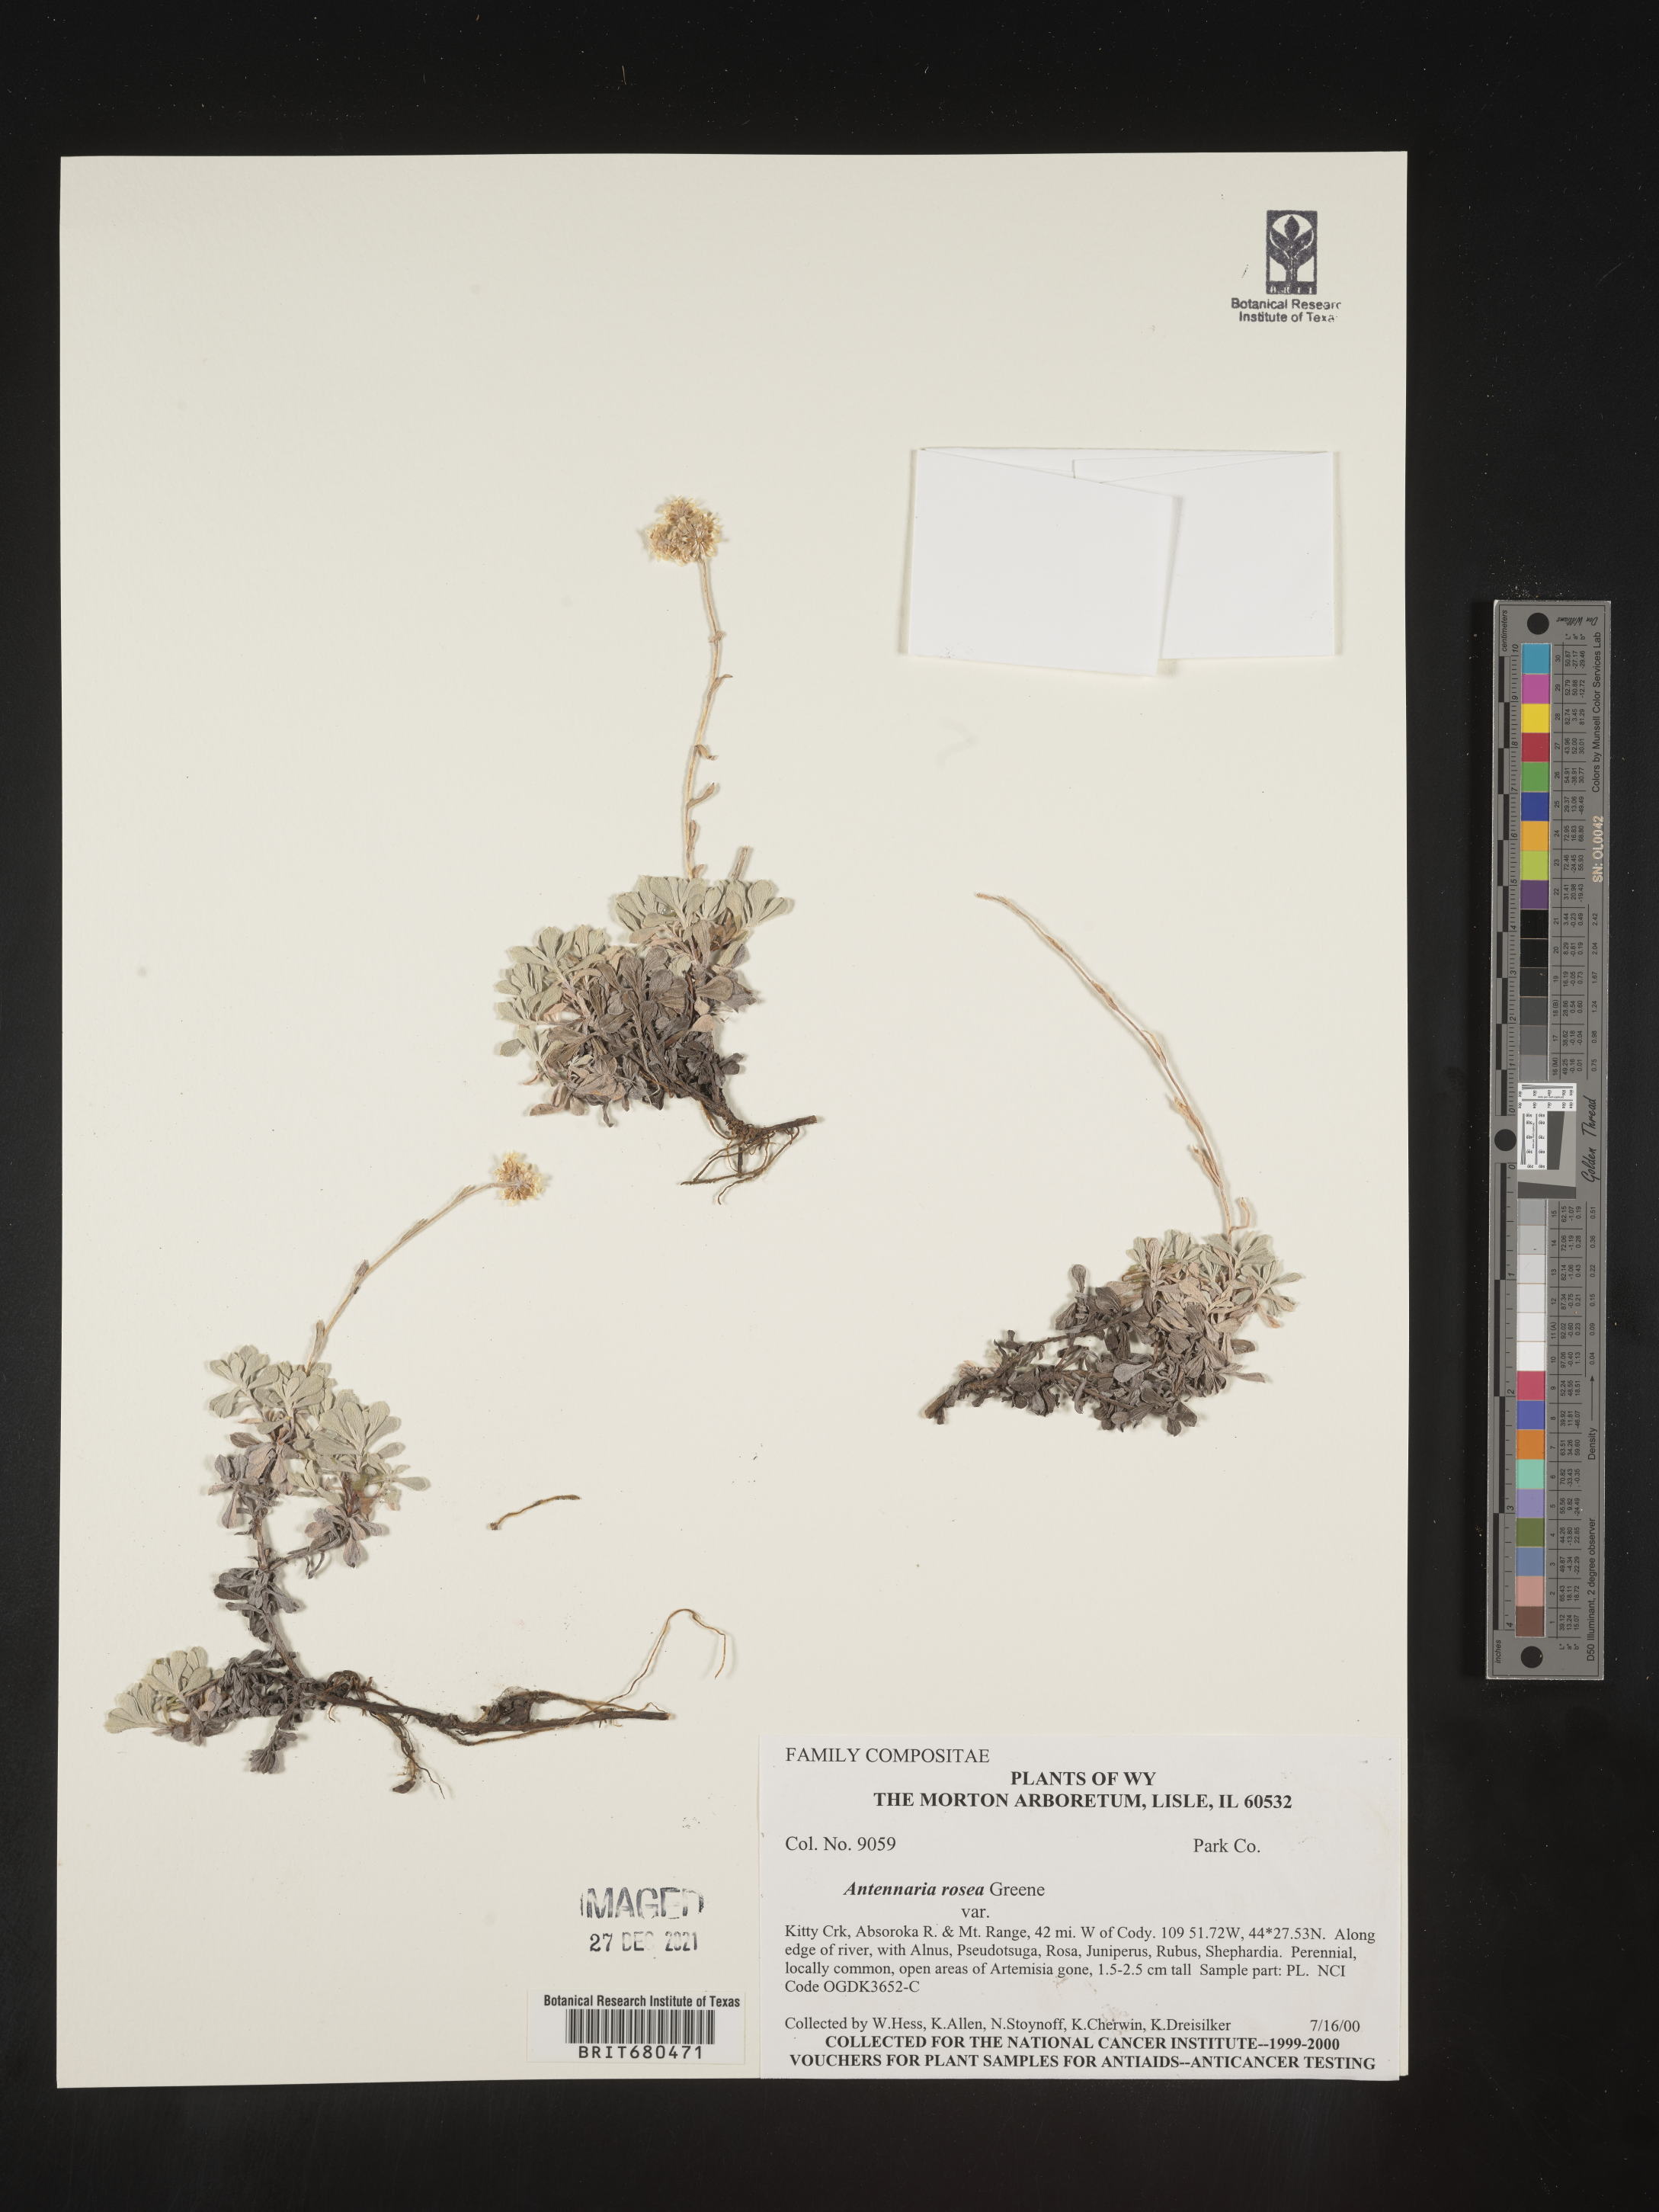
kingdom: Plantae
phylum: Tracheophyta
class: Magnoliopsida
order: Asterales
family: Asteraceae
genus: Antennaria
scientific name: Antennaria rosea
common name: Rosy pussytoes
